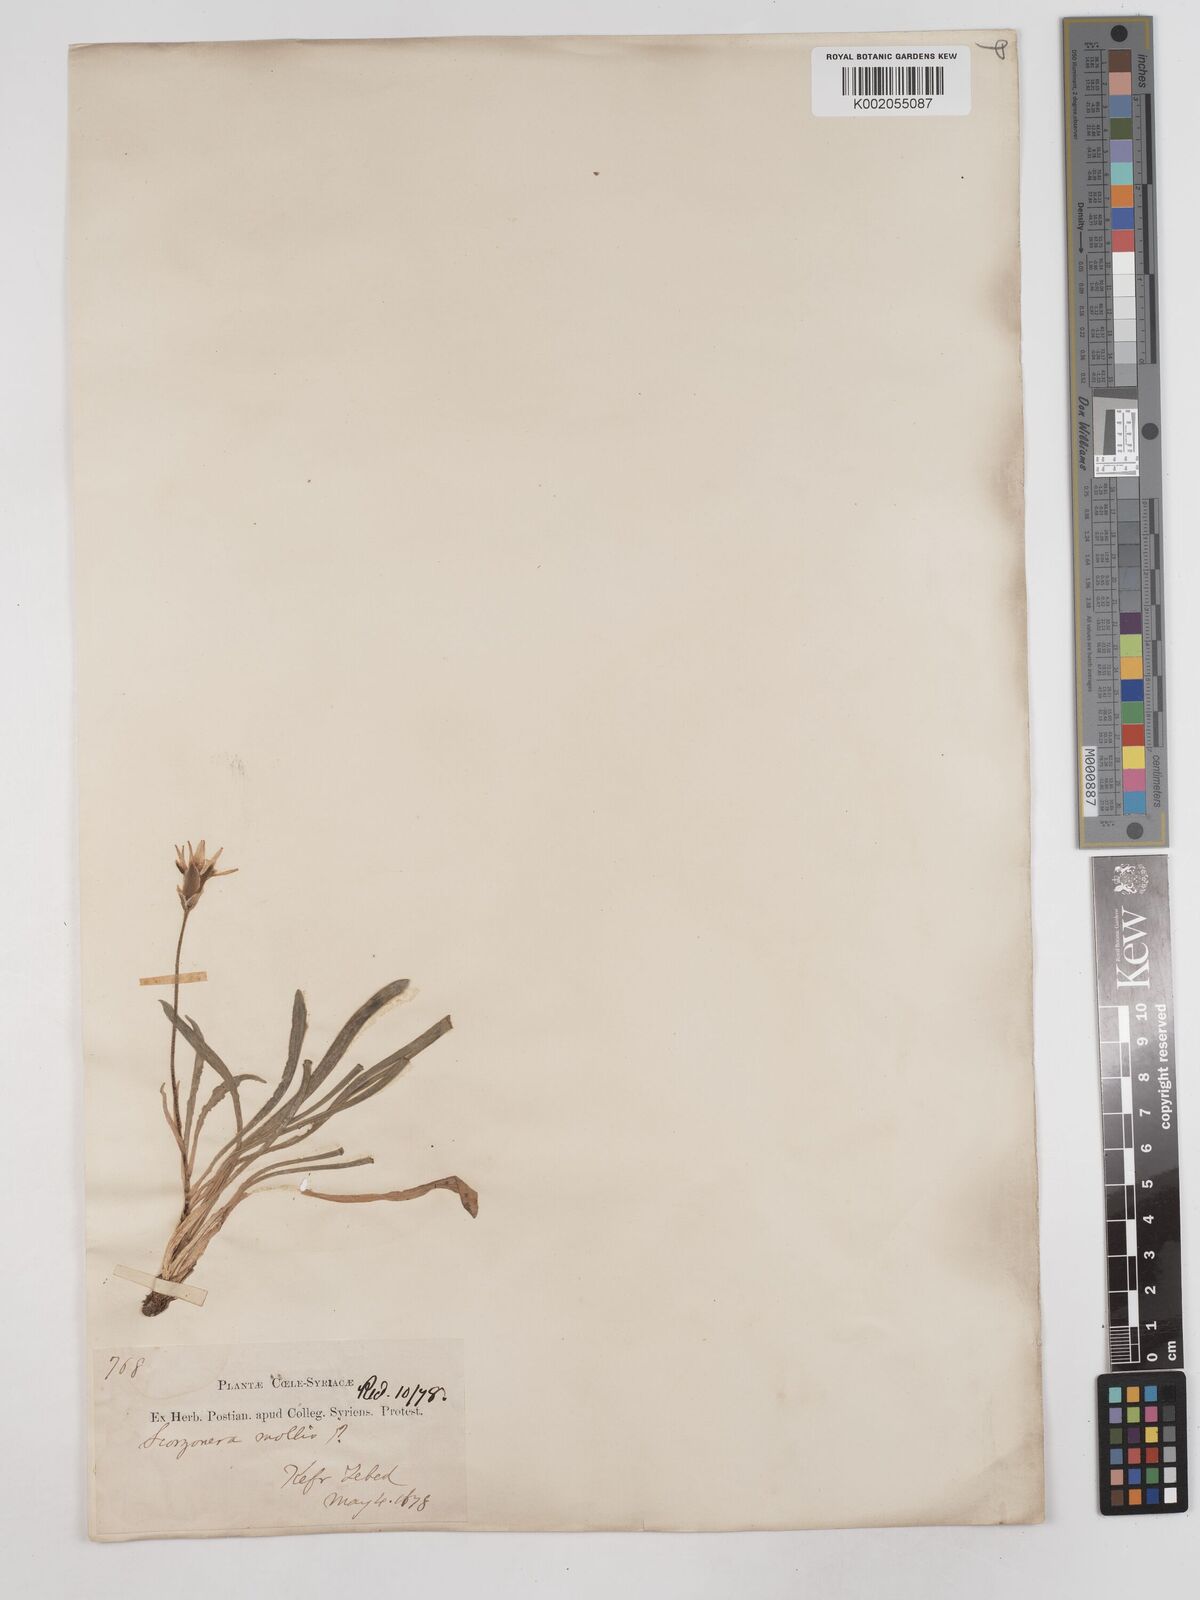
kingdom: Plantae
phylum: Tracheophyta
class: Magnoliopsida
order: Asterales
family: Asteraceae
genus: Candollea
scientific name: Candollea mollis
